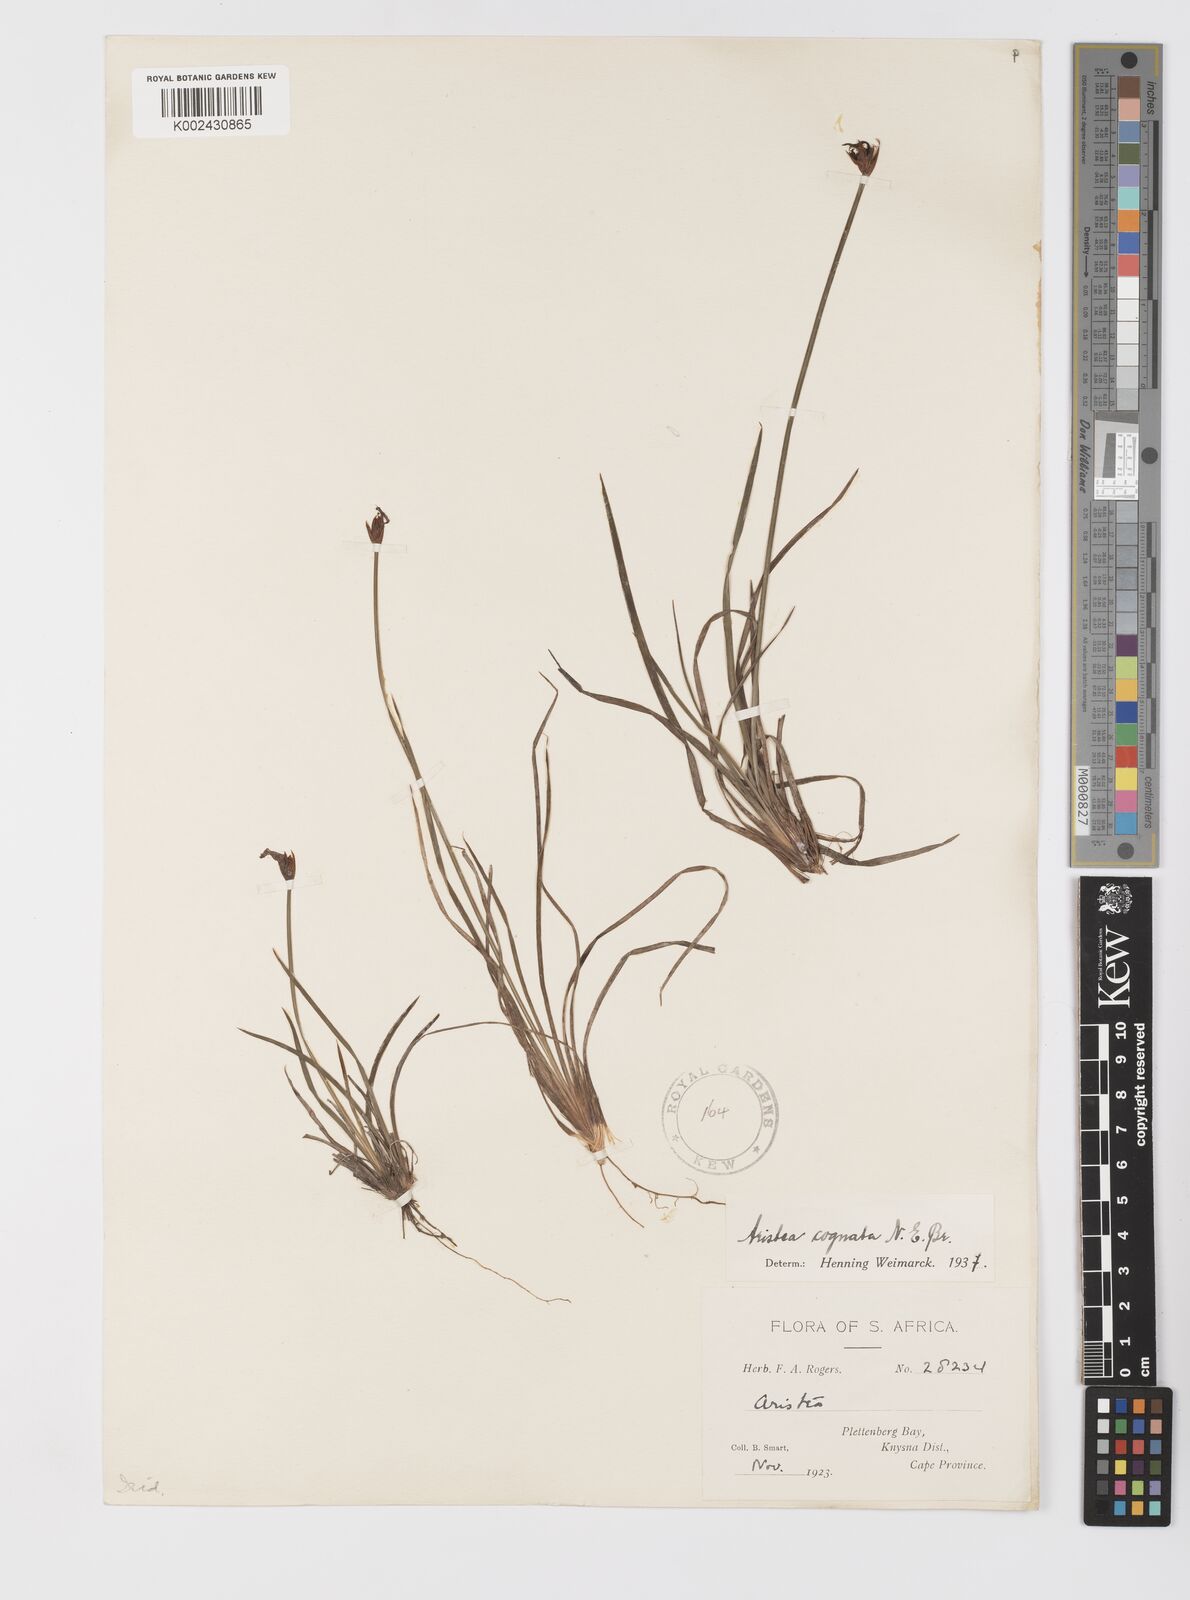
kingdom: Plantae
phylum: Tracheophyta
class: Liliopsida
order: Asparagales
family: Iridaceae
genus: Aristea
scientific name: Aristea abyssinica
